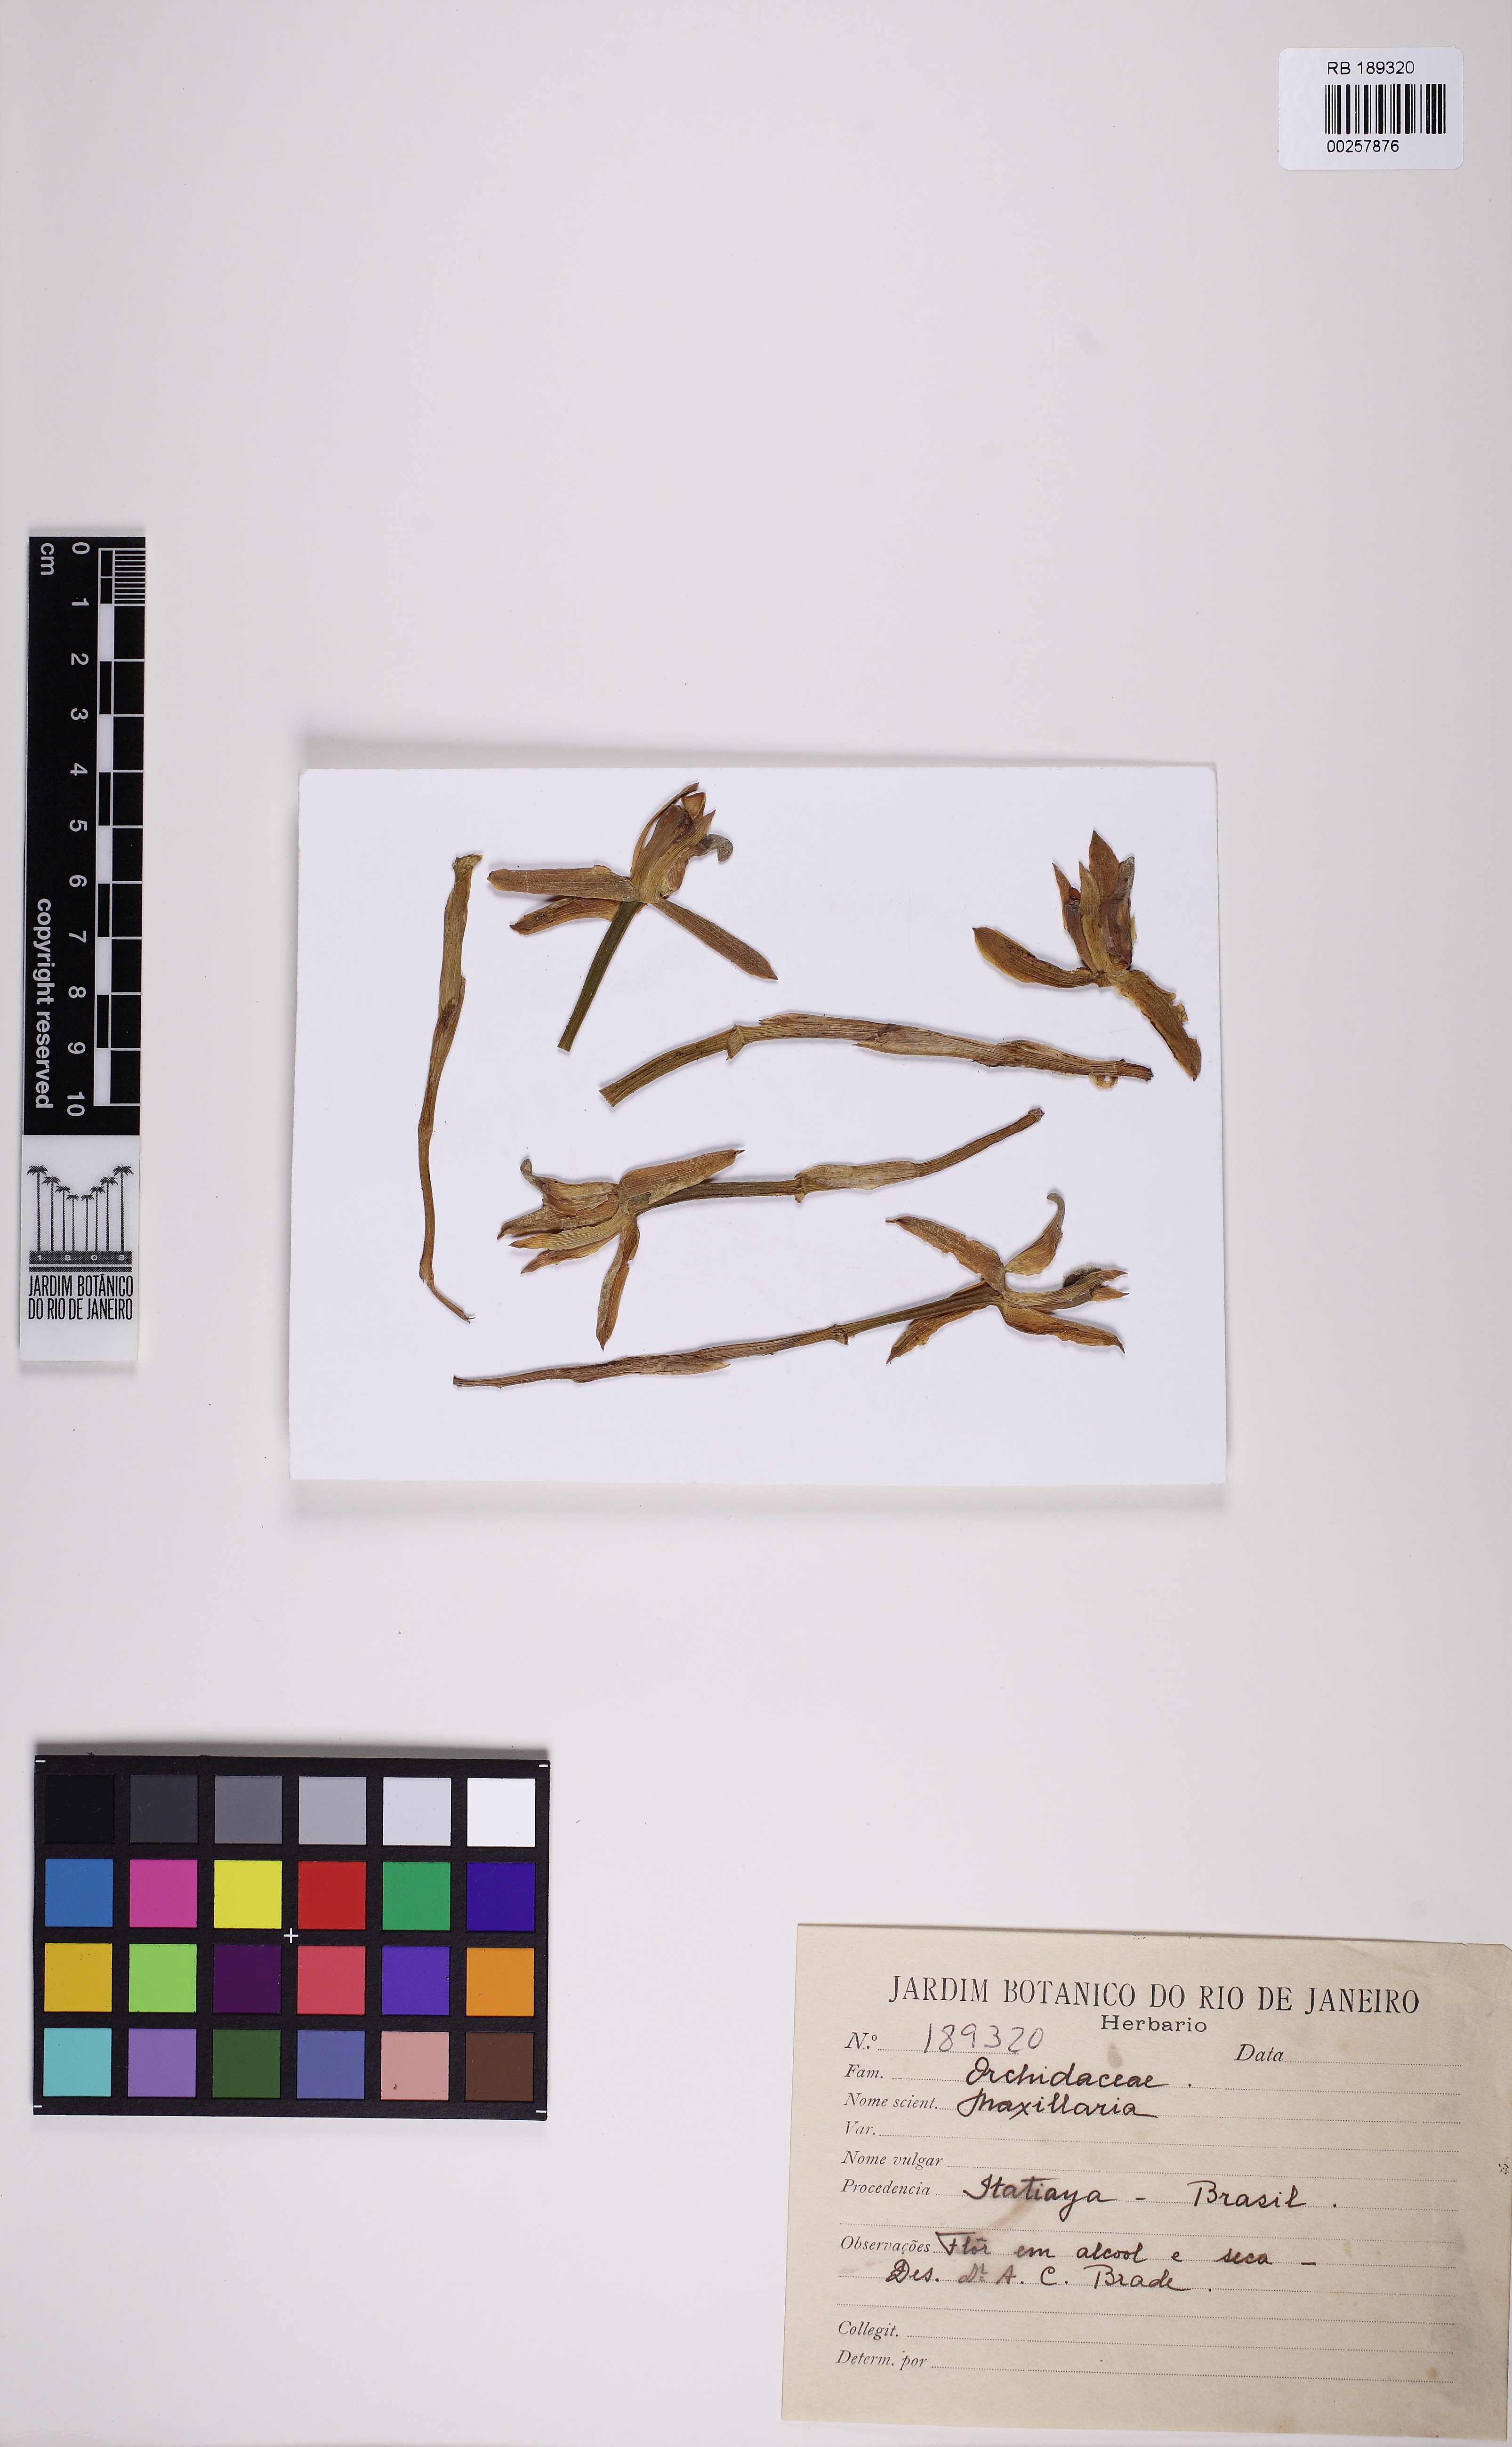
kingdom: Plantae
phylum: Tracheophyta
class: Liliopsida
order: Asparagales
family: Orchidaceae
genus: Maxillaria
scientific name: Maxillaria
